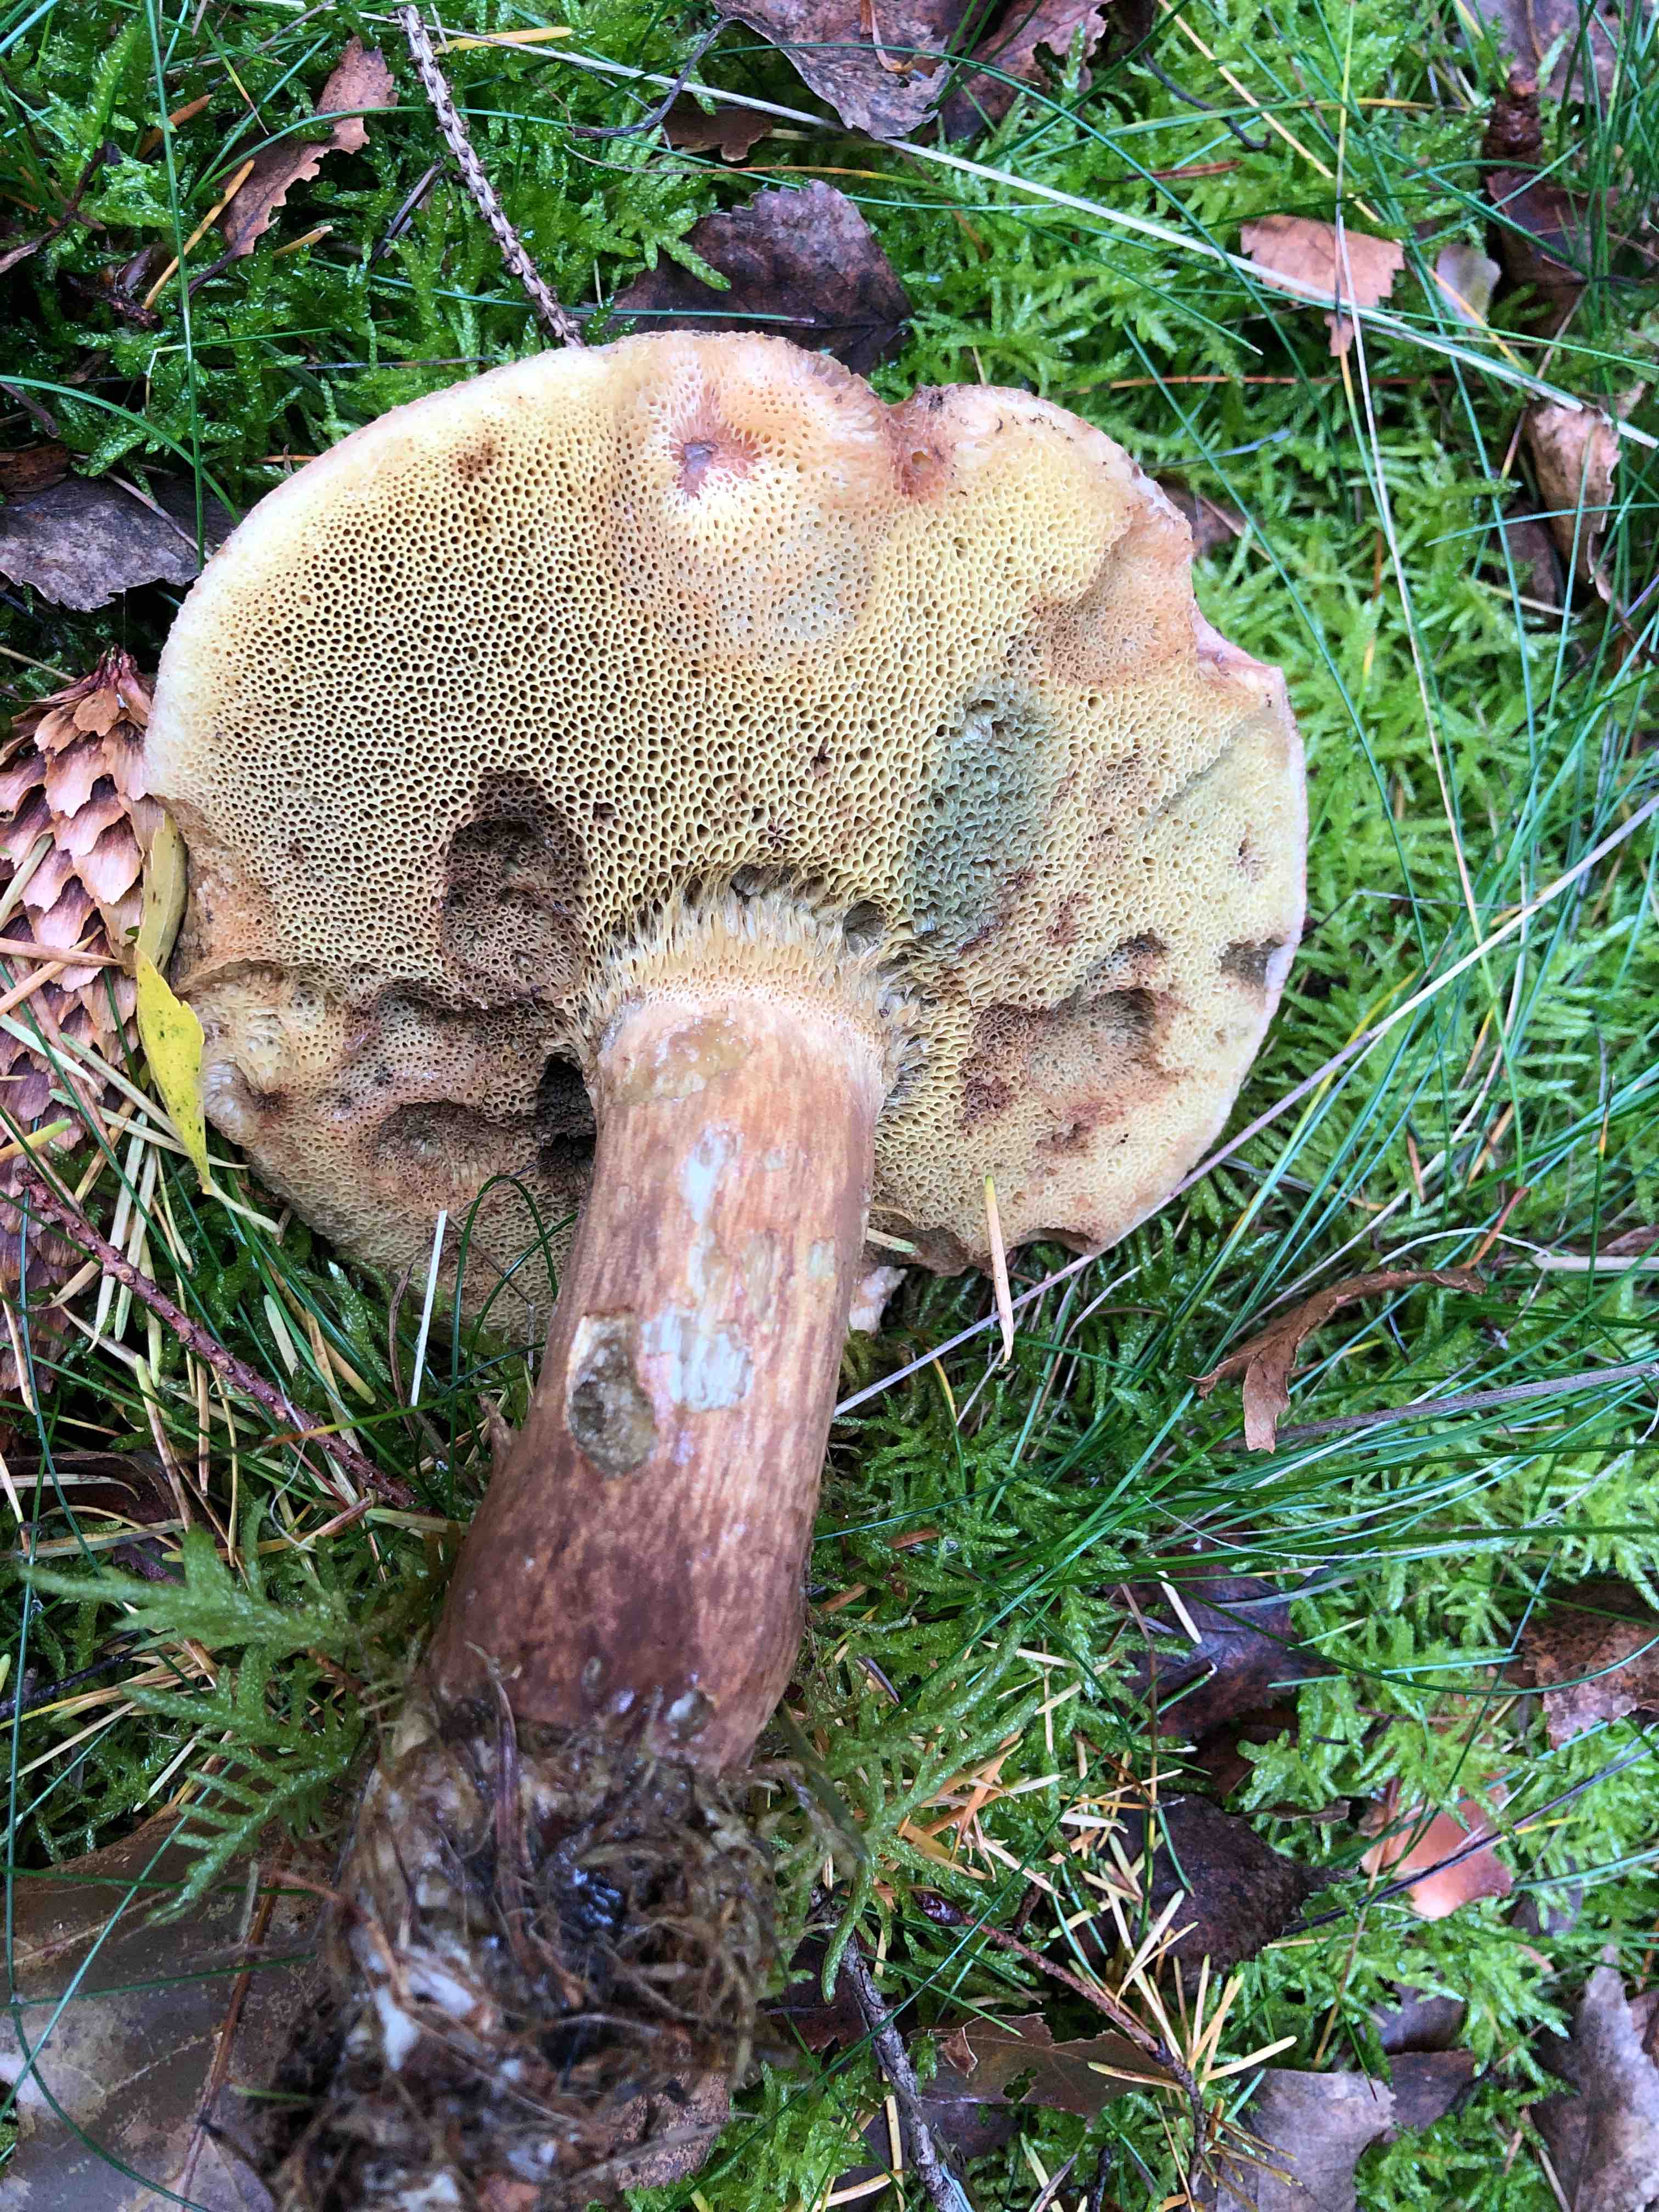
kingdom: Fungi
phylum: Basidiomycota
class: Agaricomycetes
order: Boletales
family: Boletaceae
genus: Imleria
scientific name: Imleria badia
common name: brunstokket rørhat
